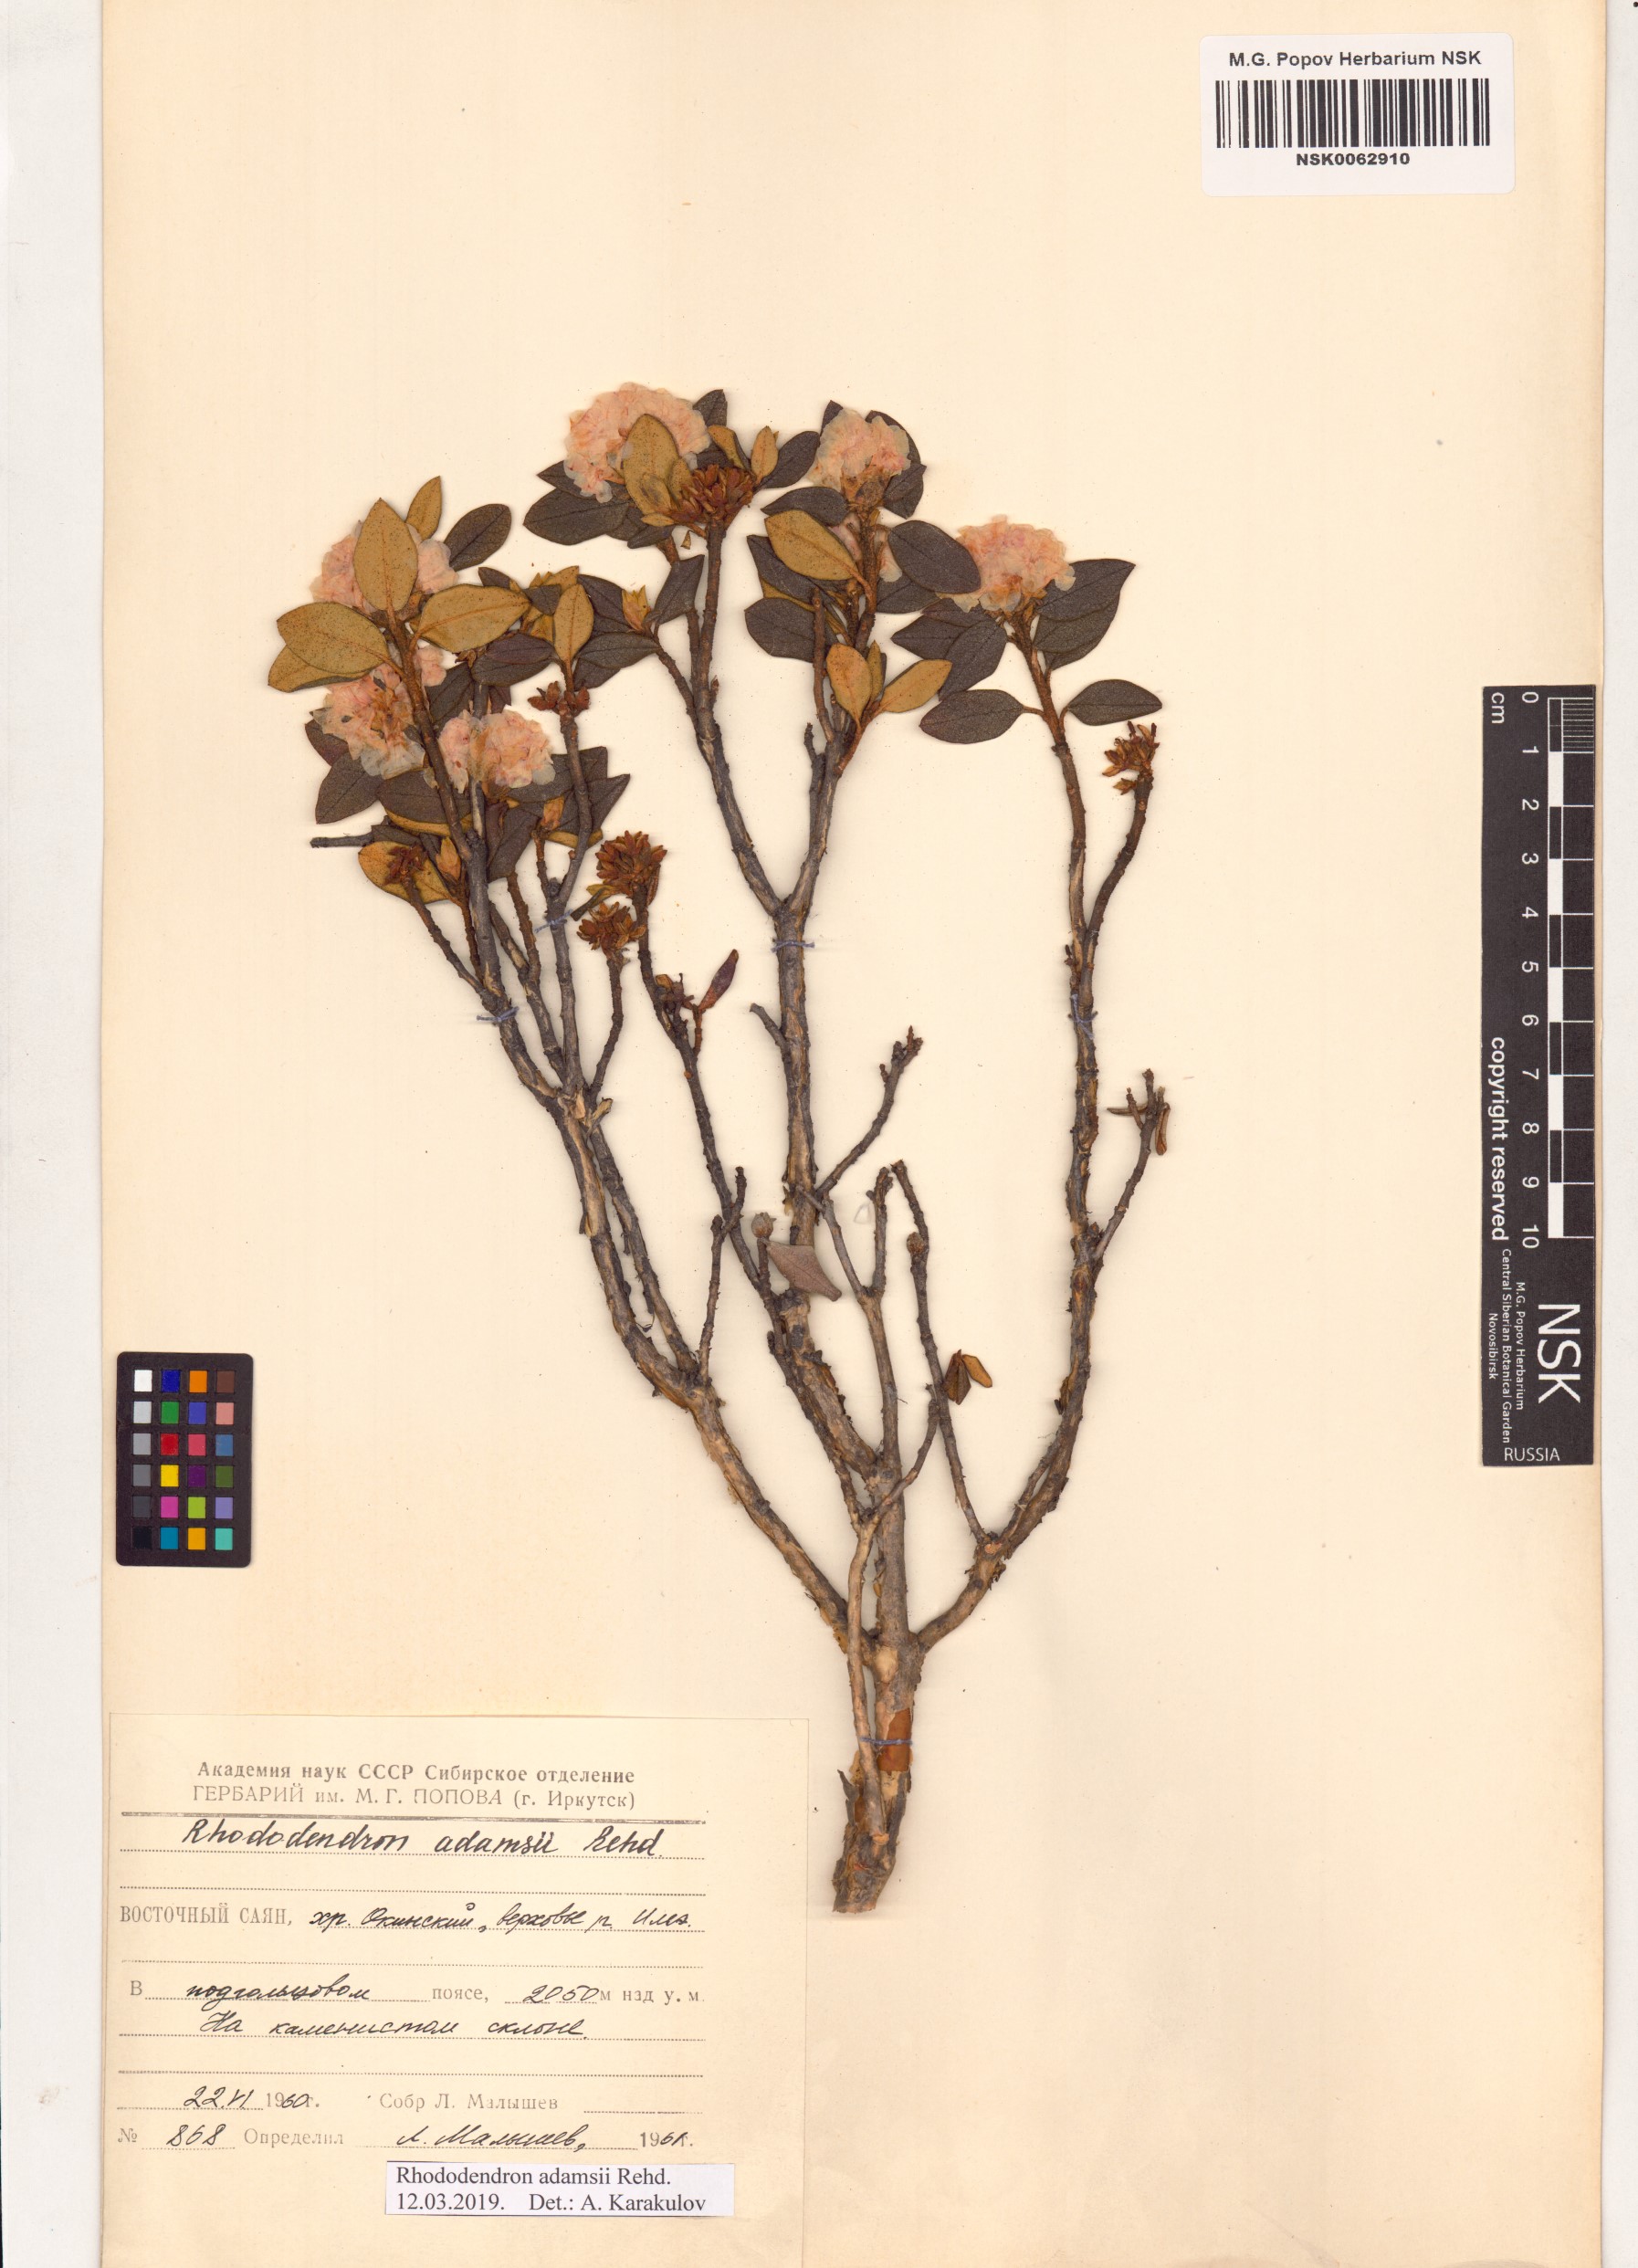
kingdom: Plantae
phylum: Tracheophyta
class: Magnoliopsida
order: Ericales
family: Ericaceae
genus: Rhododendron
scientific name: Rhododendron adamsii
